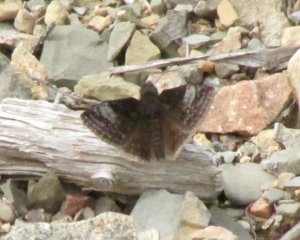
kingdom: Animalia
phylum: Arthropoda
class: Insecta
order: Lepidoptera
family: Hesperiidae
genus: Erynnis
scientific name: Erynnis icelus
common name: Dreamy Duskywing
